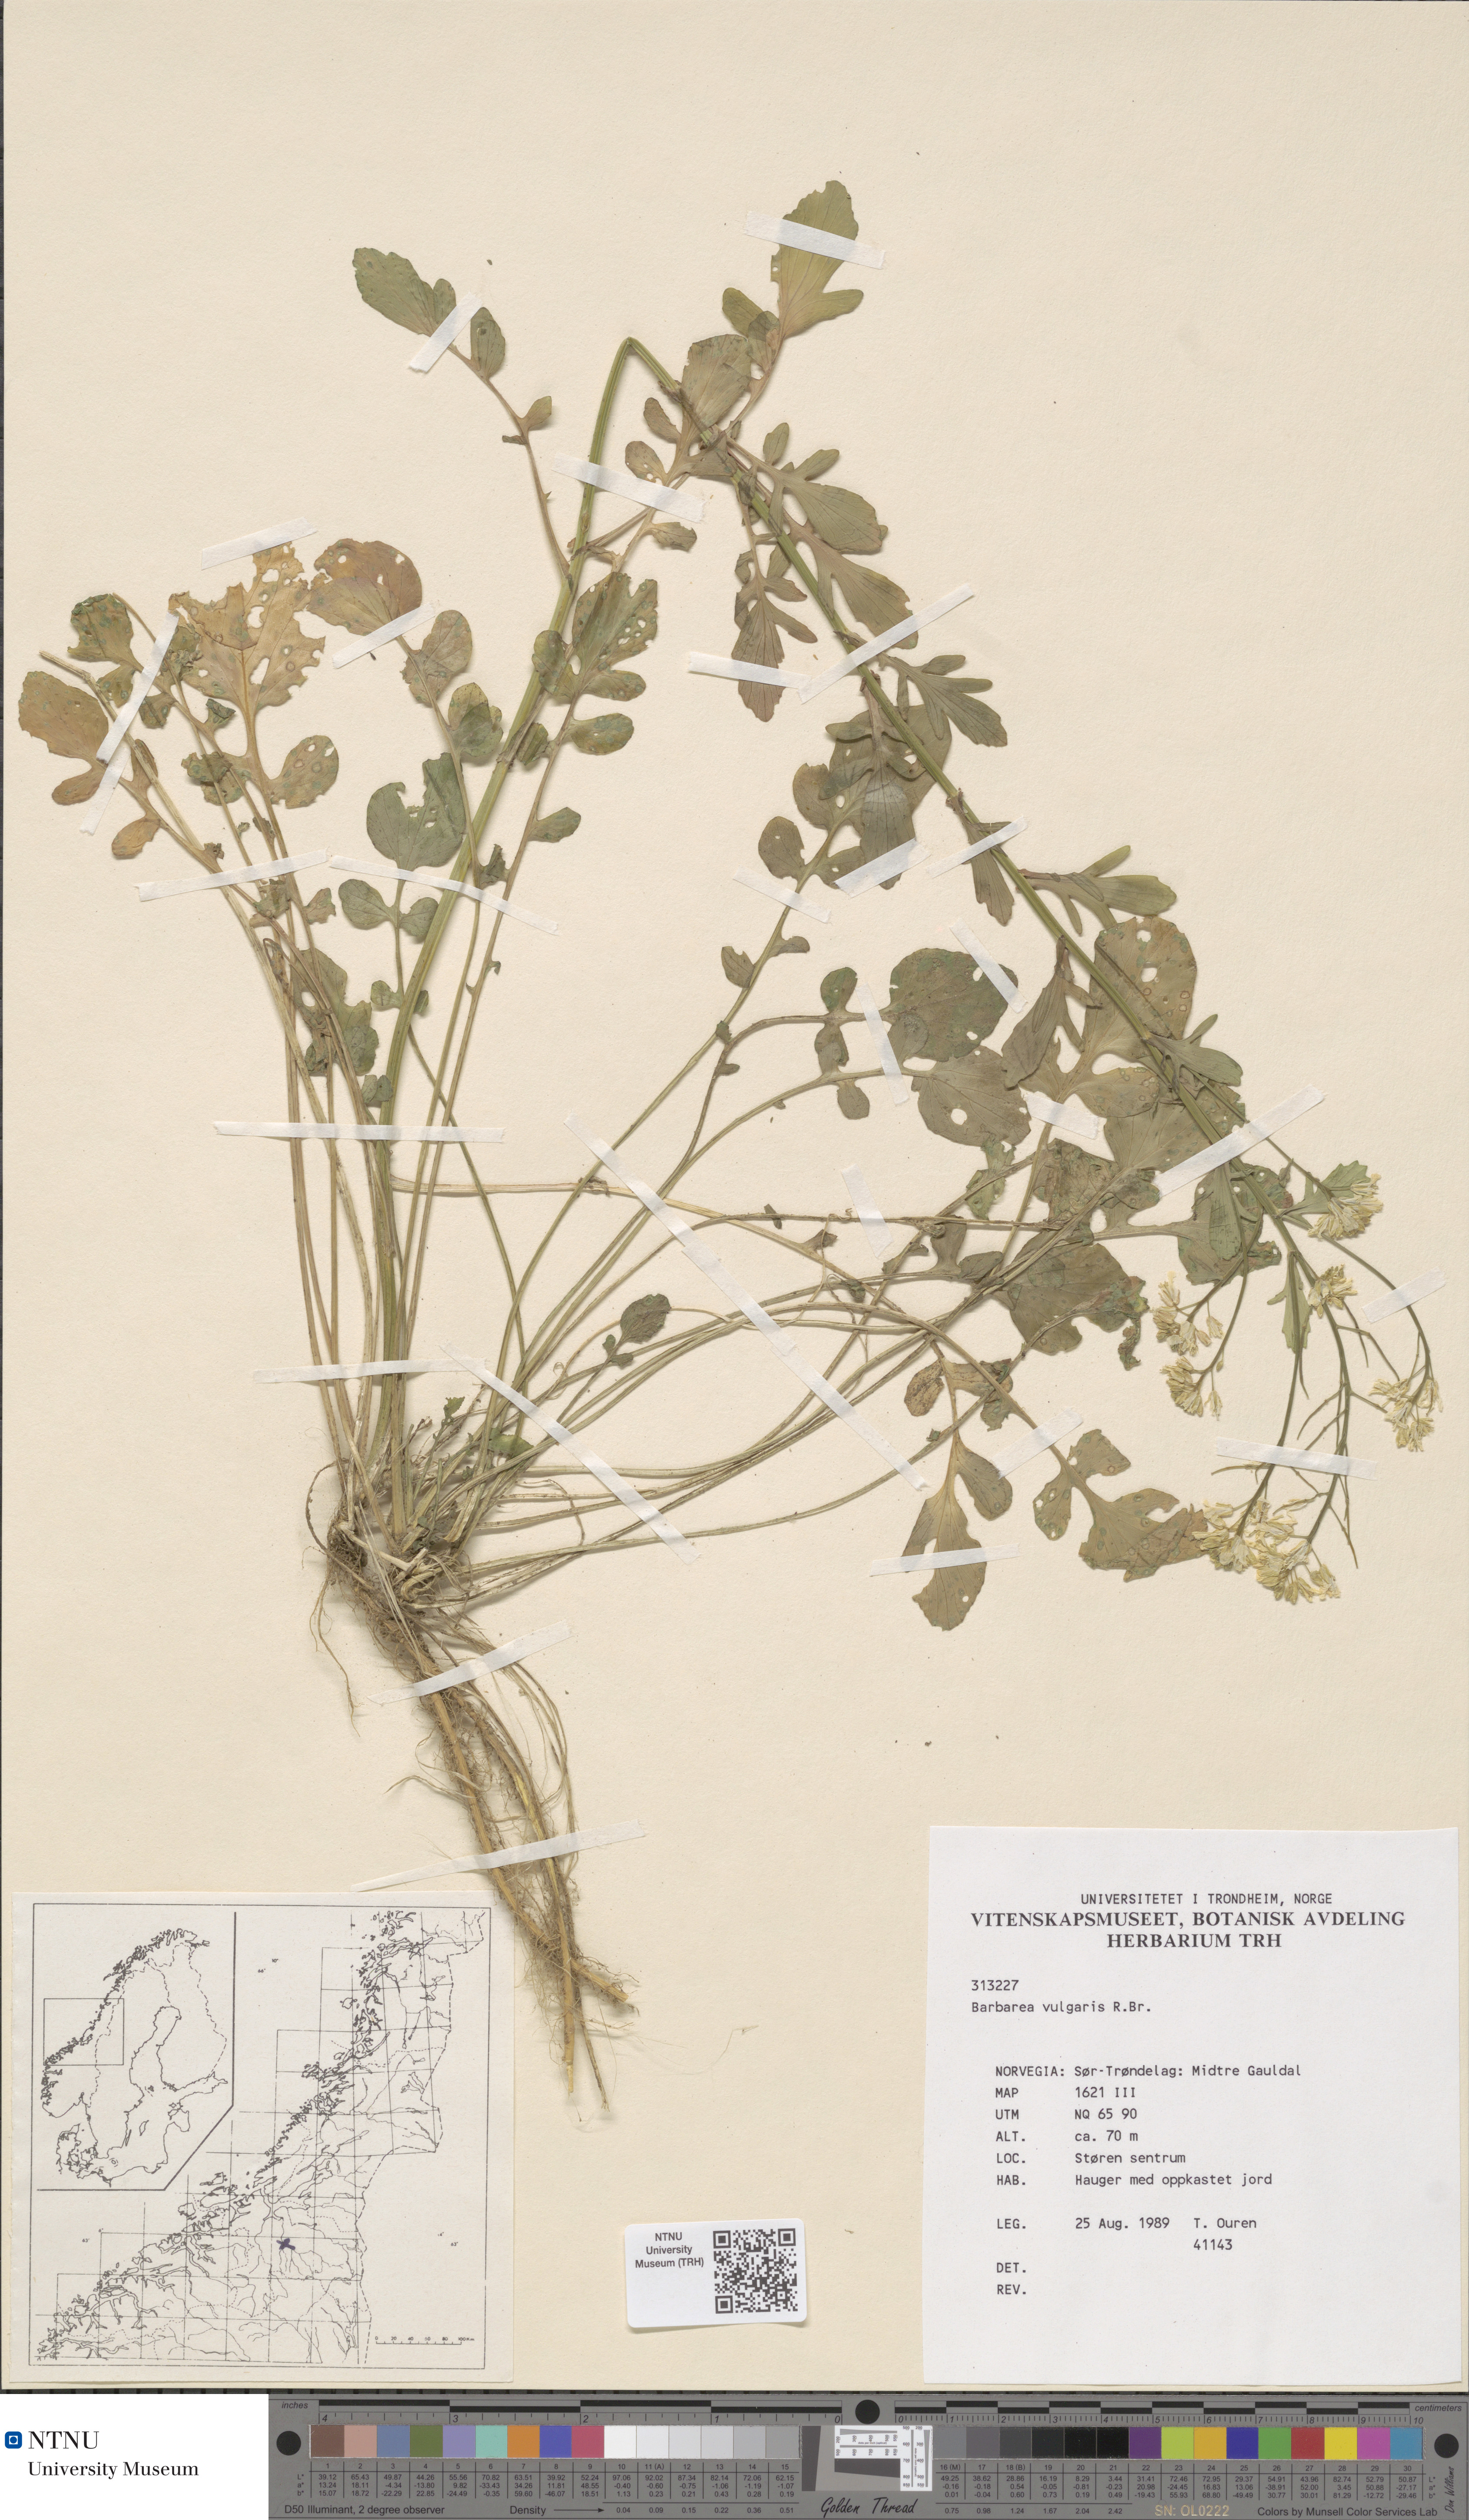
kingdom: Plantae
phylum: Tracheophyta
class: Magnoliopsida
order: Brassicales
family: Brassicaceae
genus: Barbarea
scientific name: Barbarea vulgaris
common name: Cressy-greens
